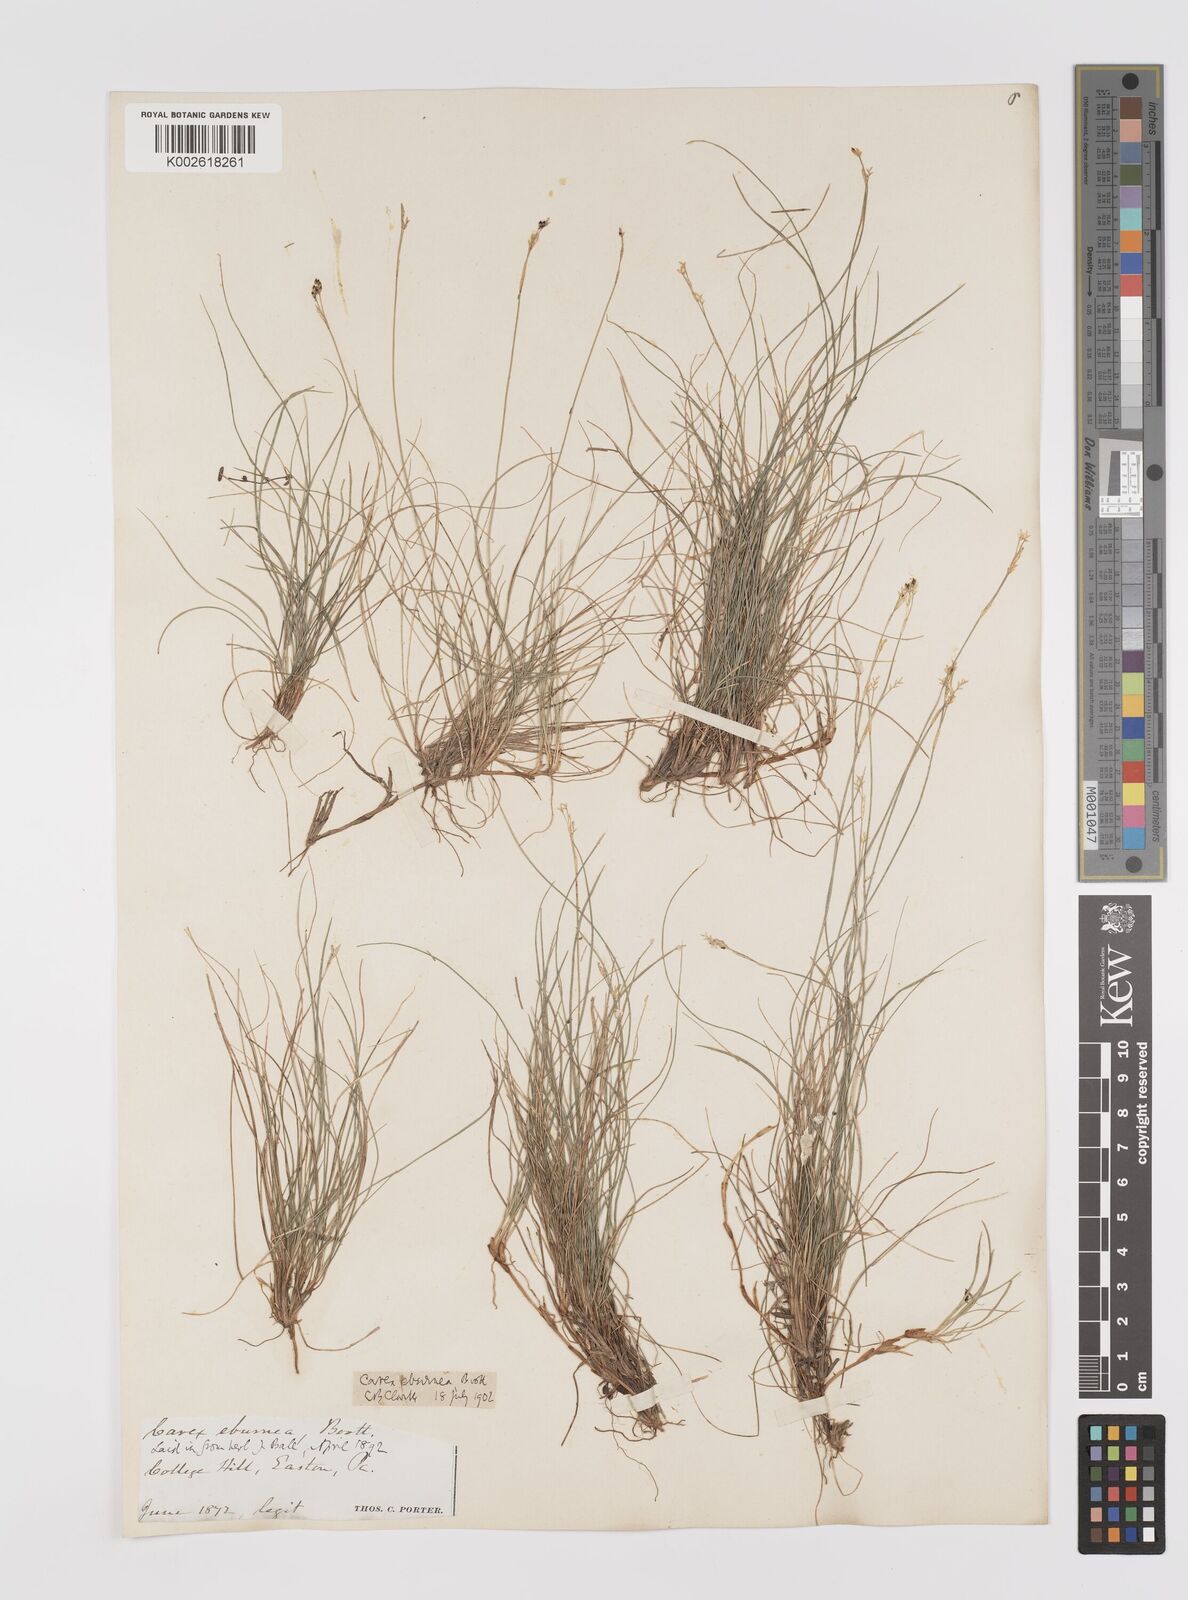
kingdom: Plantae
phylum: Tracheophyta
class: Liliopsida
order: Poales
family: Cyperaceae
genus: Carex
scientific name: Carex eburnea
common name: Bristle-leaved sedge
